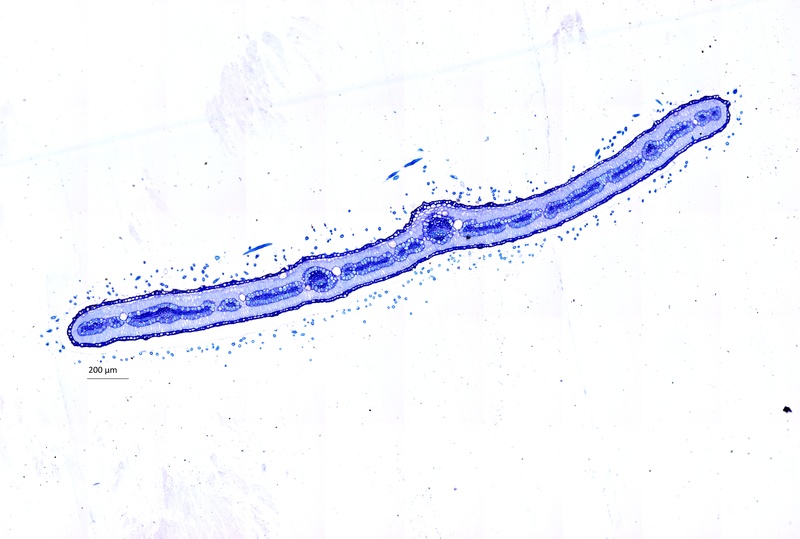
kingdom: Plantae
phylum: Tracheophyta
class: Magnoliopsida
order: Zygophyllales
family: Zygophyllaceae
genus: Tribulus
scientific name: Tribulus zeyheri
